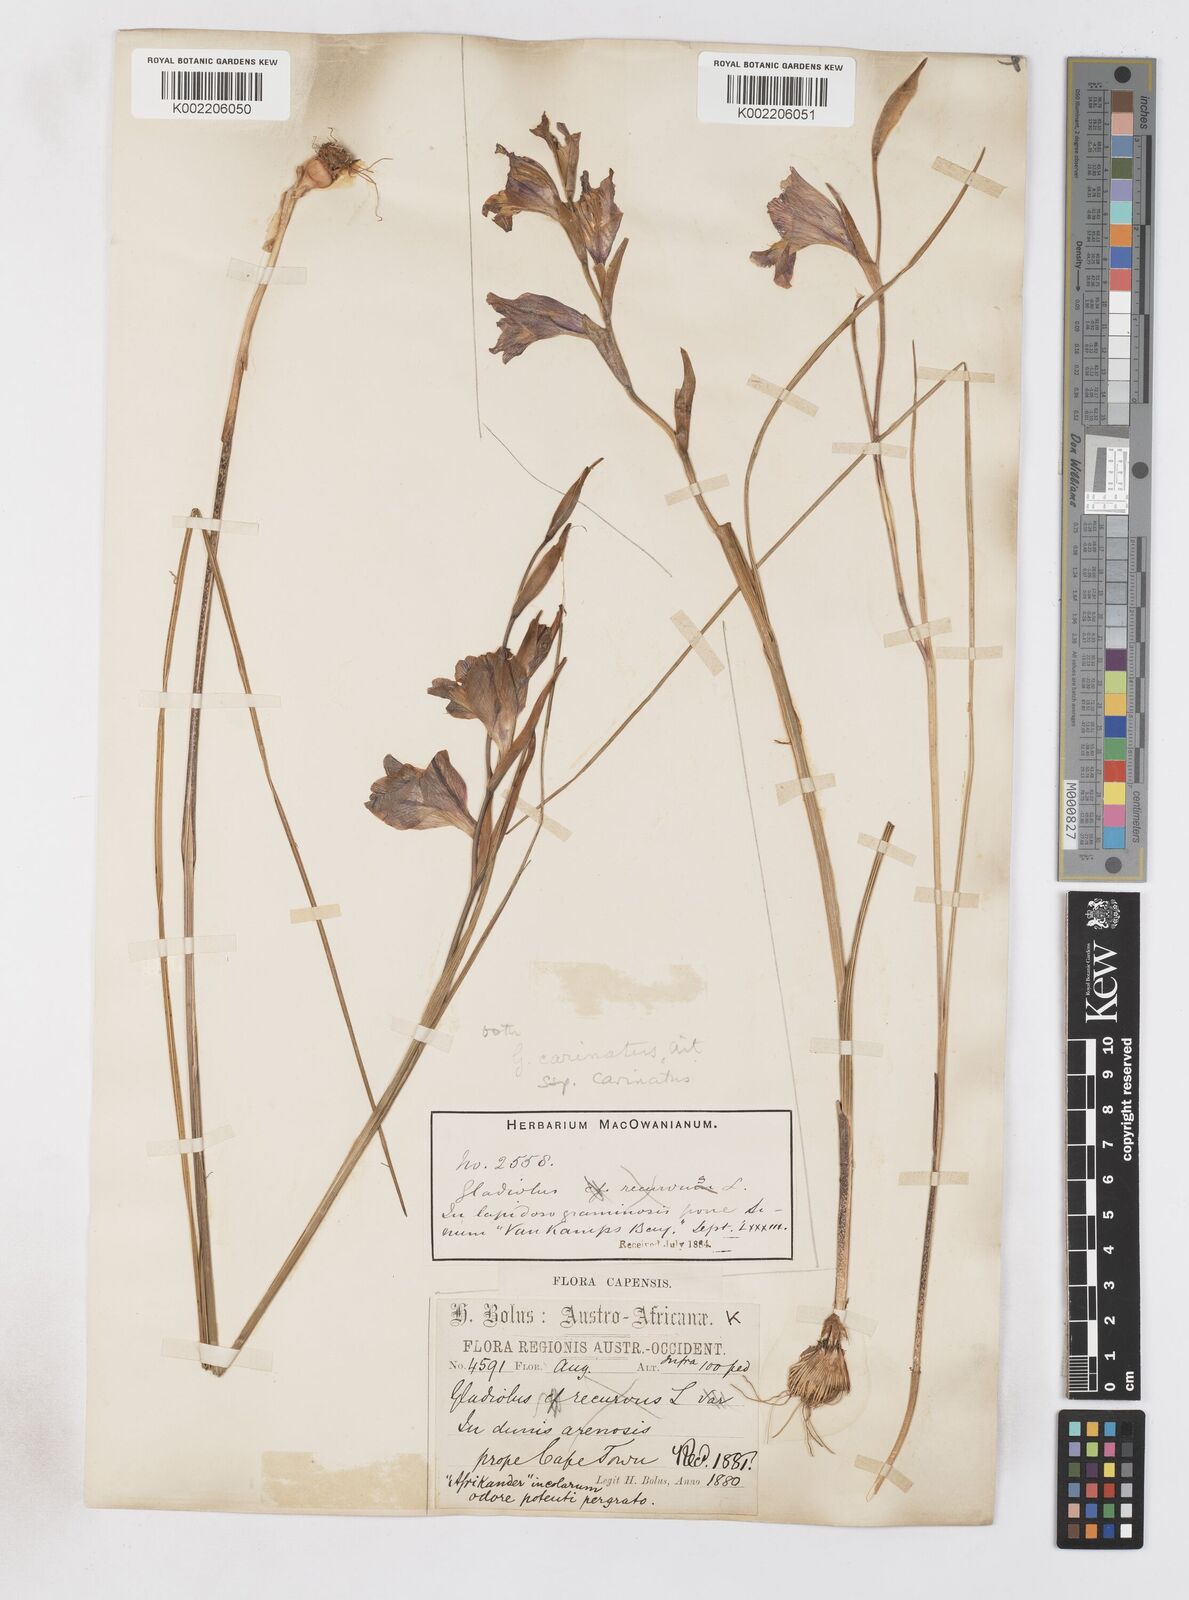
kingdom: Plantae
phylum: Tracheophyta
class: Liliopsida
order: Asparagales
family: Iridaceae
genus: Gladiolus
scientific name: Gladiolus carinatus
